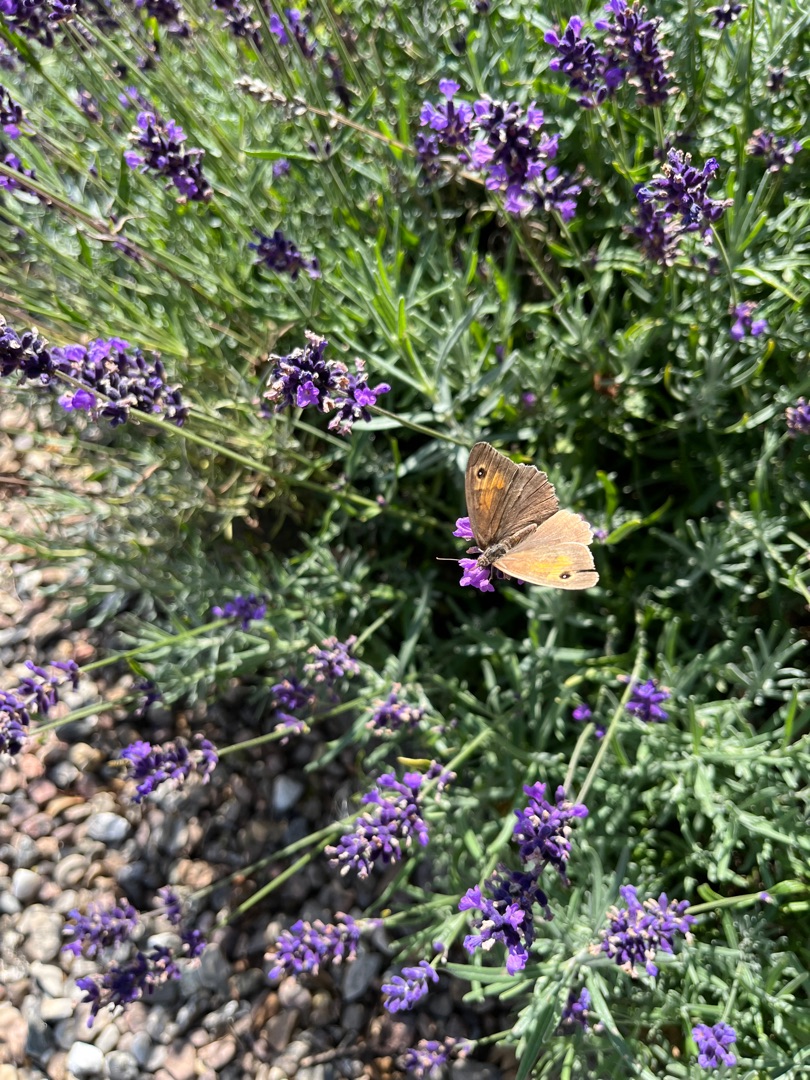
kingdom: Animalia
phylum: Arthropoda
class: Insecta
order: Lepidoptera
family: Nymphalidae
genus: Maniola
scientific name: Maniola jurtina
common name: Græsrandøje
